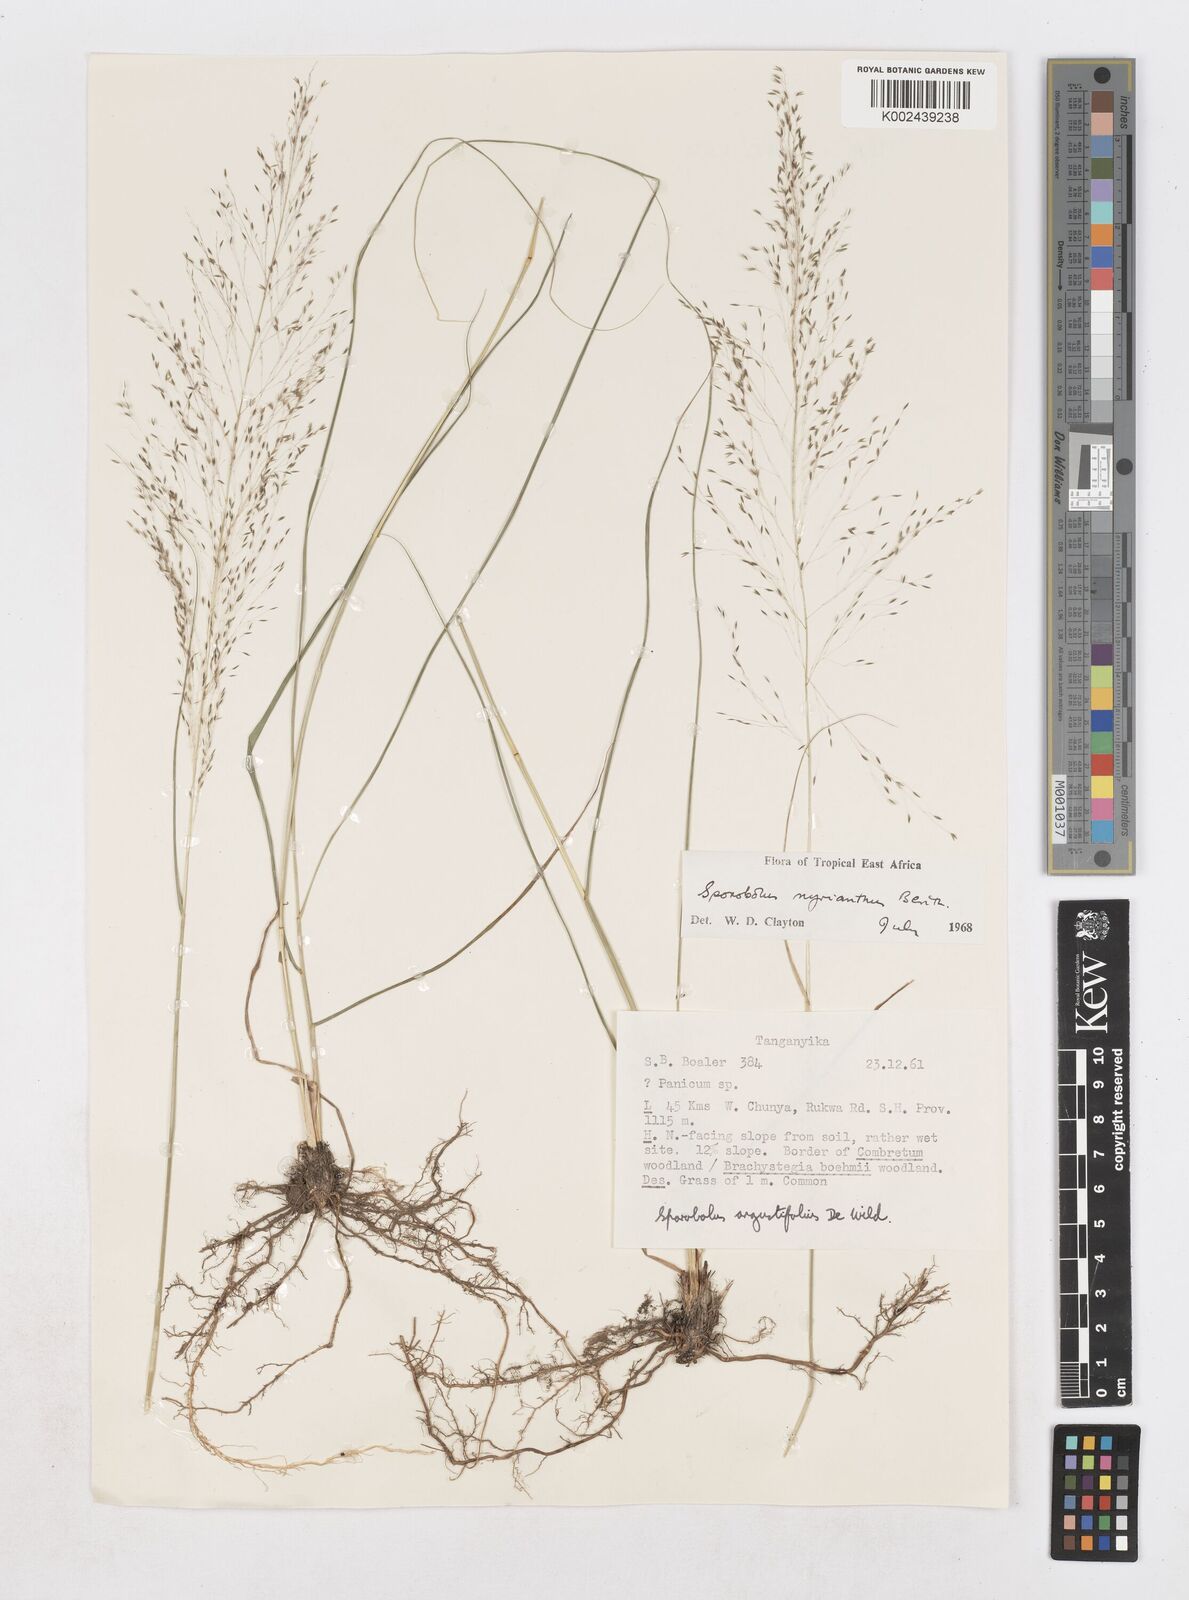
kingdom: Plantae
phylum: Tracheophyta
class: Liliopsida
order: Poales
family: Poaceae
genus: Sporobolus
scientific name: Sporobolus myrianthus
